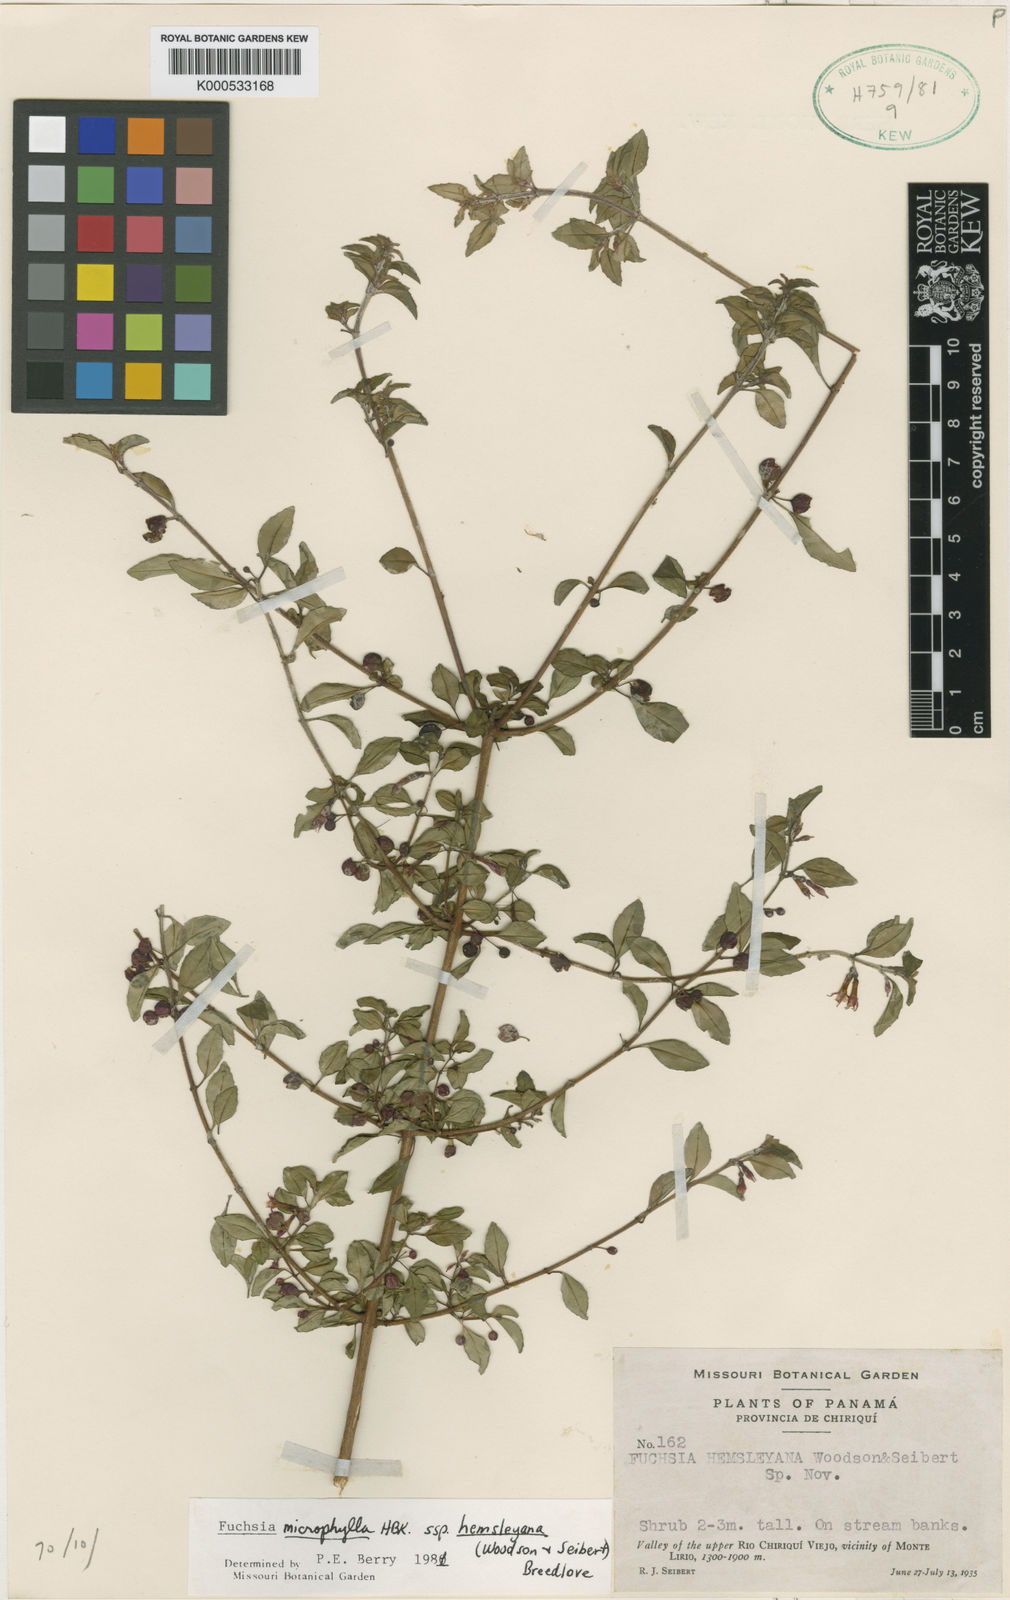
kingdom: Plantae
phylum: Tracheophyta
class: Magnoliopsida
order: Myrtales
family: Onagraceae
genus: Fuchsia
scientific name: Fuchsia microphylla
